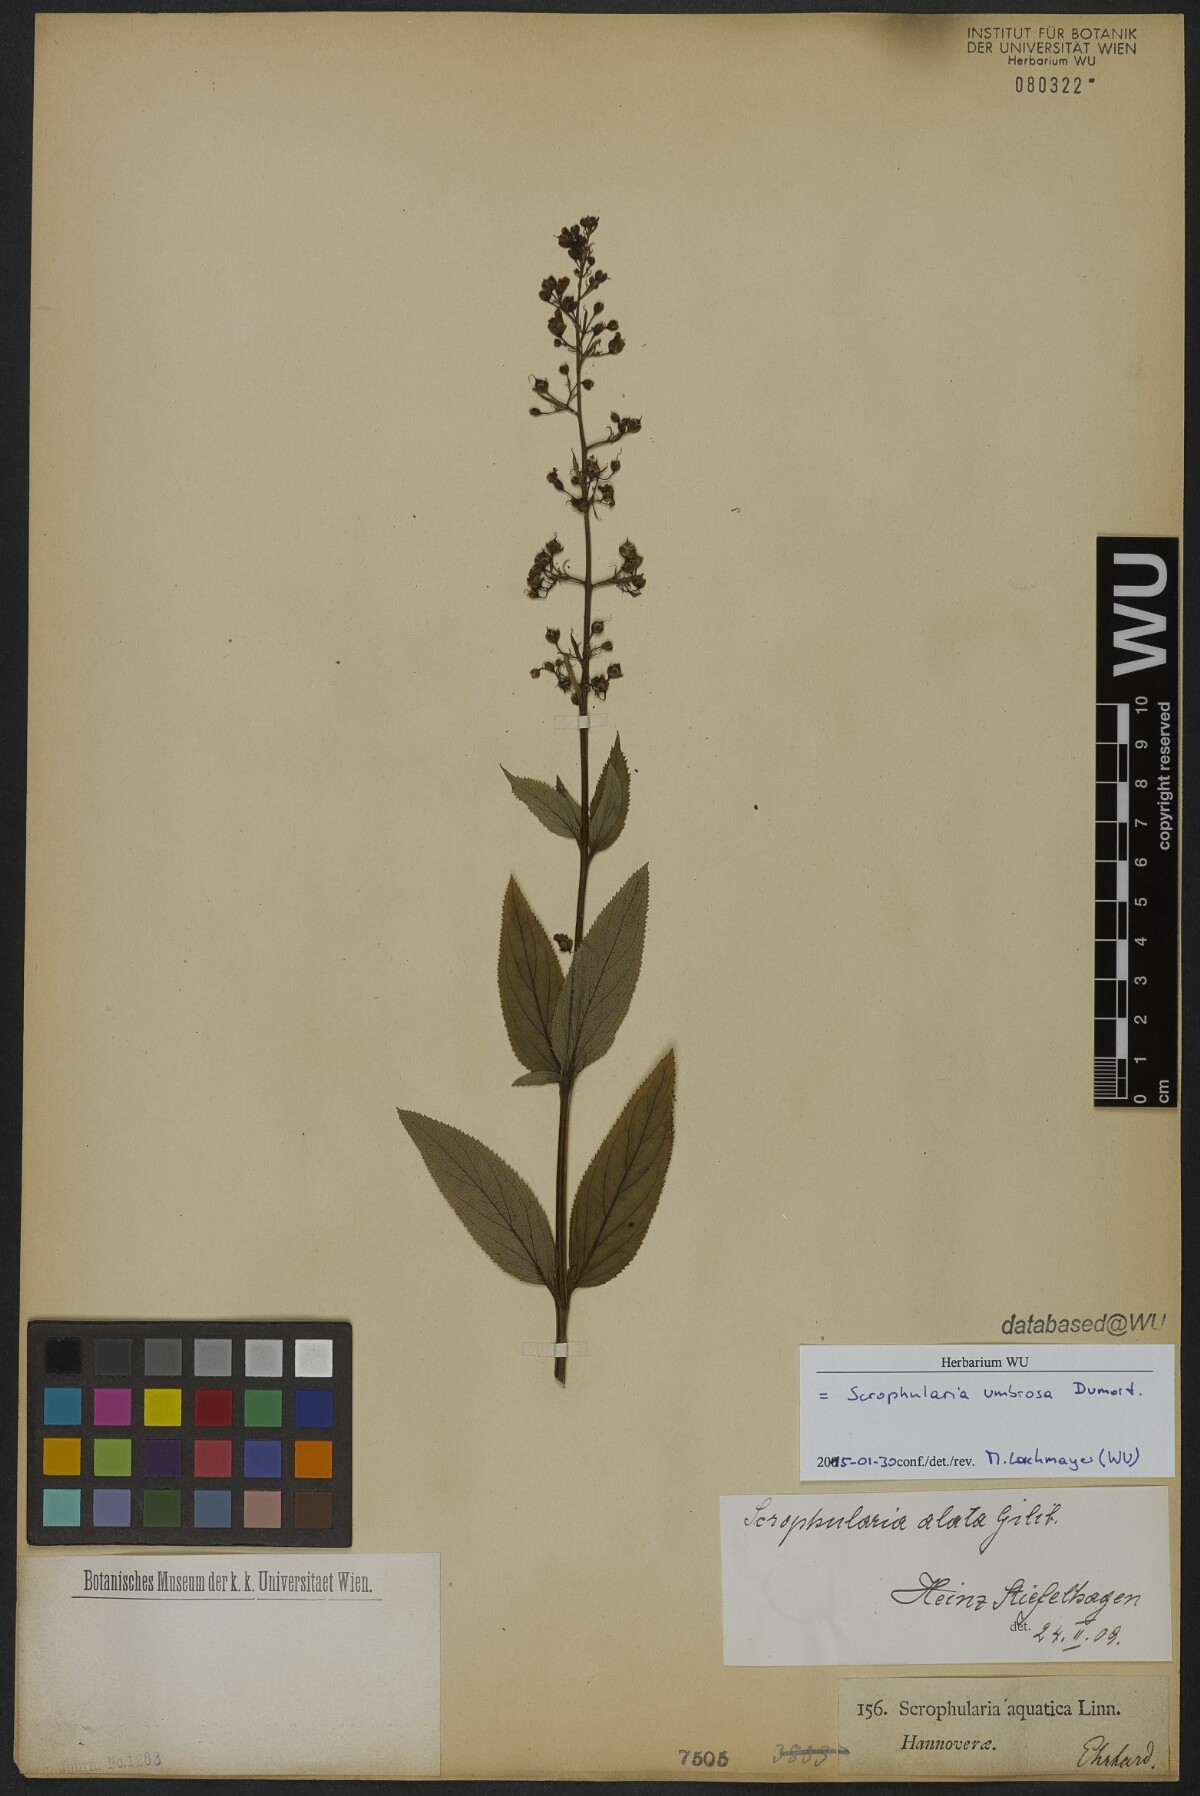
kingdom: Plantae
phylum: Tracheophyta
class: Magnoliopsida
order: Lamiales
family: Scrophulariaceae
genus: Scrophularia
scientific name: Scrophularia umbrosa
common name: Green figwort
